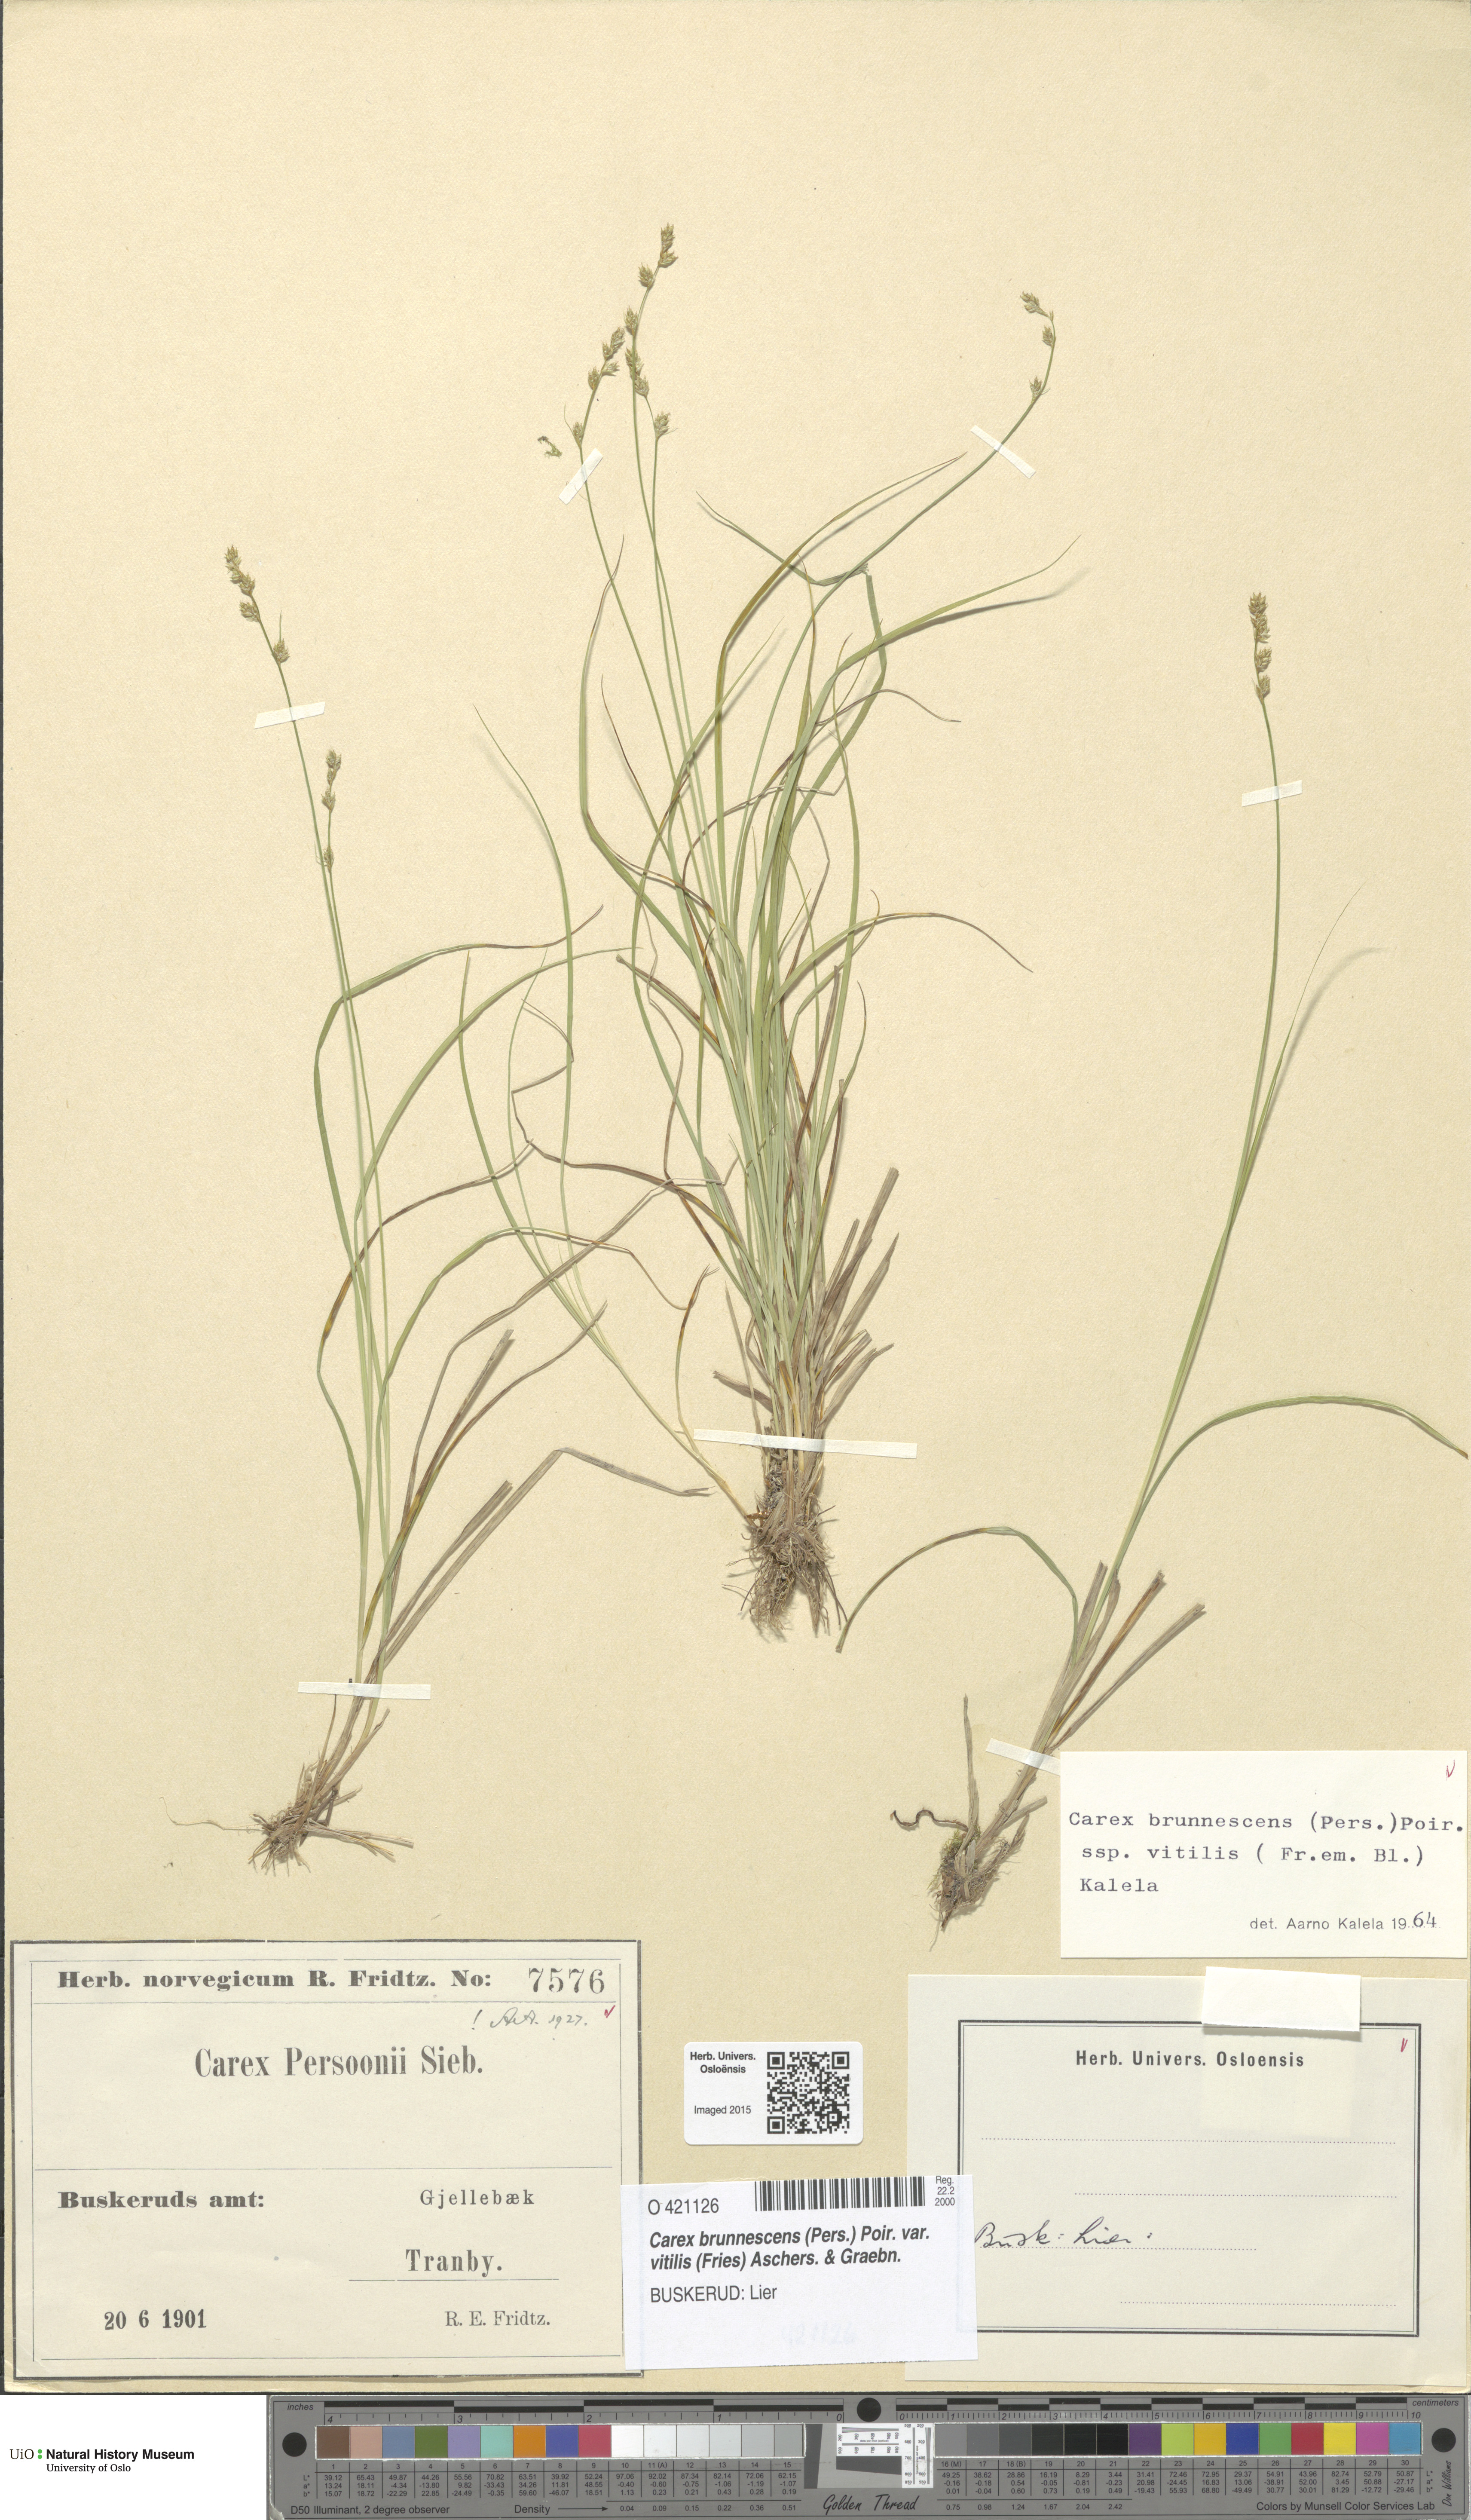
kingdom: Plantae
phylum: Tracheophyta
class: Liliopsida
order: Poales
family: Cyperaceae
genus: Carex
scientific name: Carex brunnescens
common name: Brown sedge
